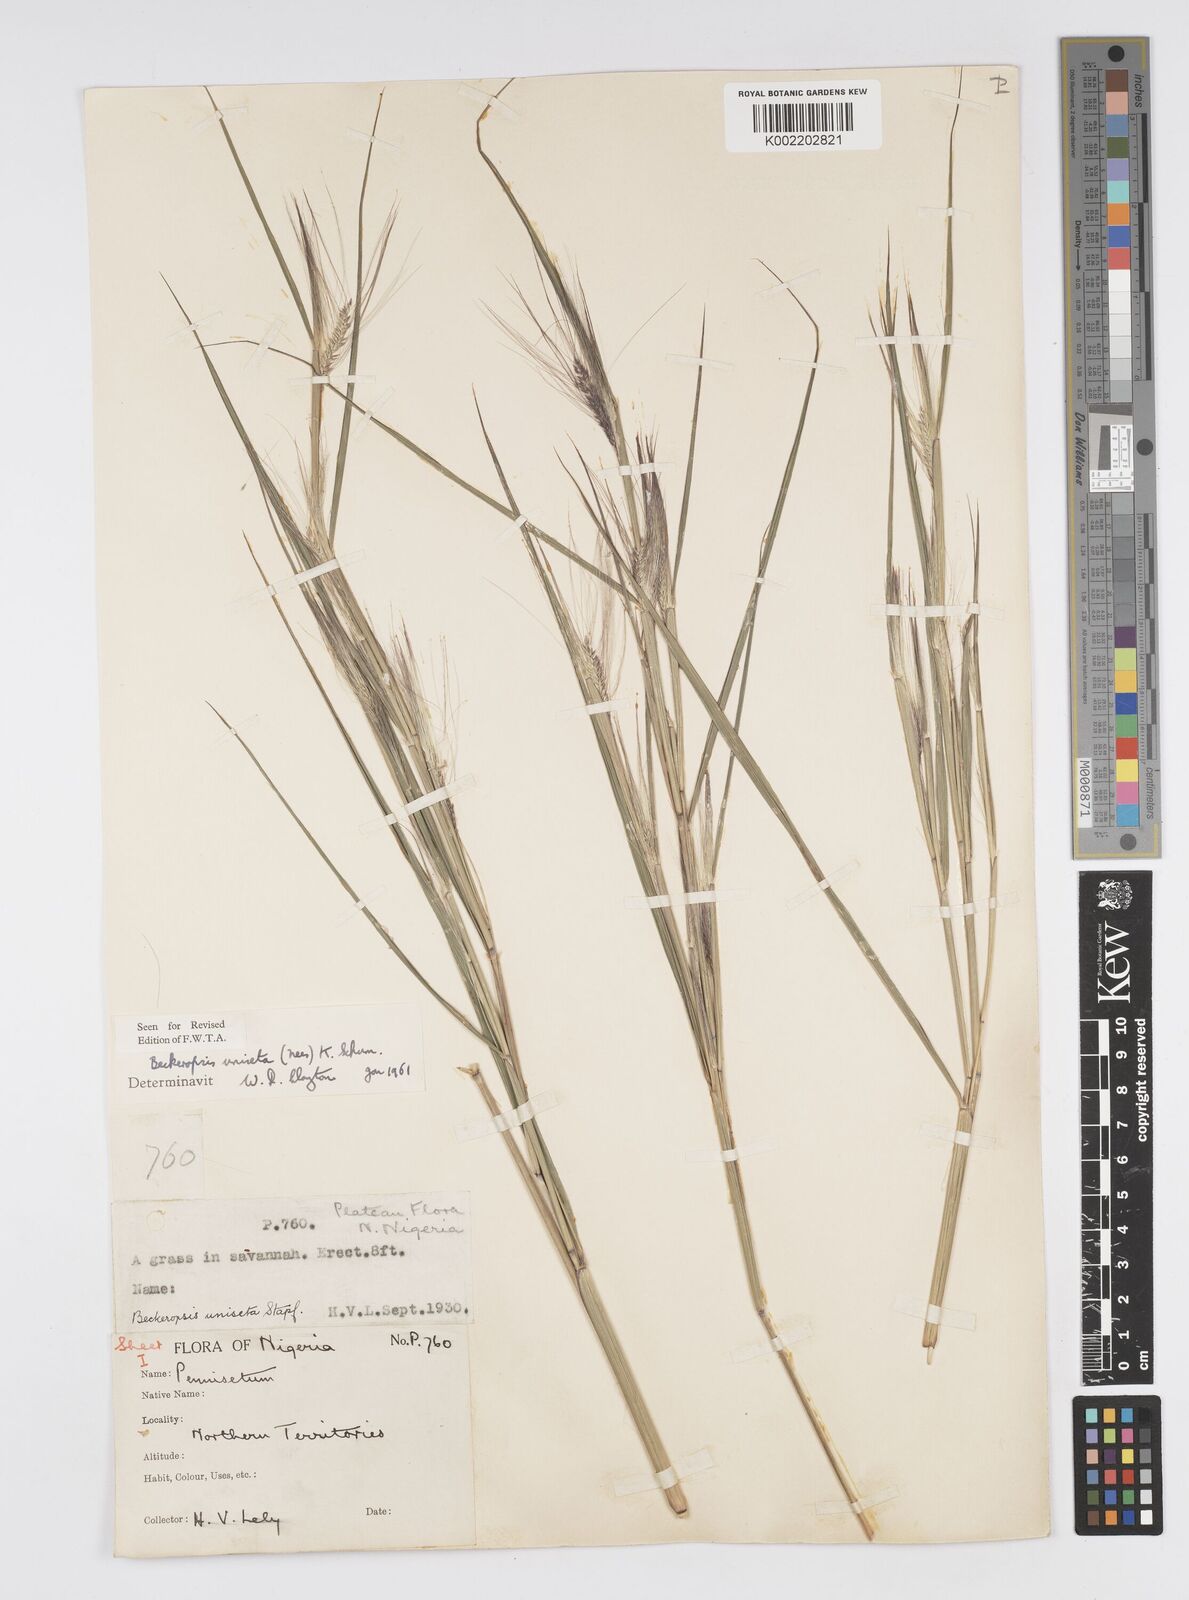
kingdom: Plantae
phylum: Tracheophyta
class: Liliopsida
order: Poales
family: Poaceae
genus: Cenchrus
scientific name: Cenchrus unisetus
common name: Natal grass
